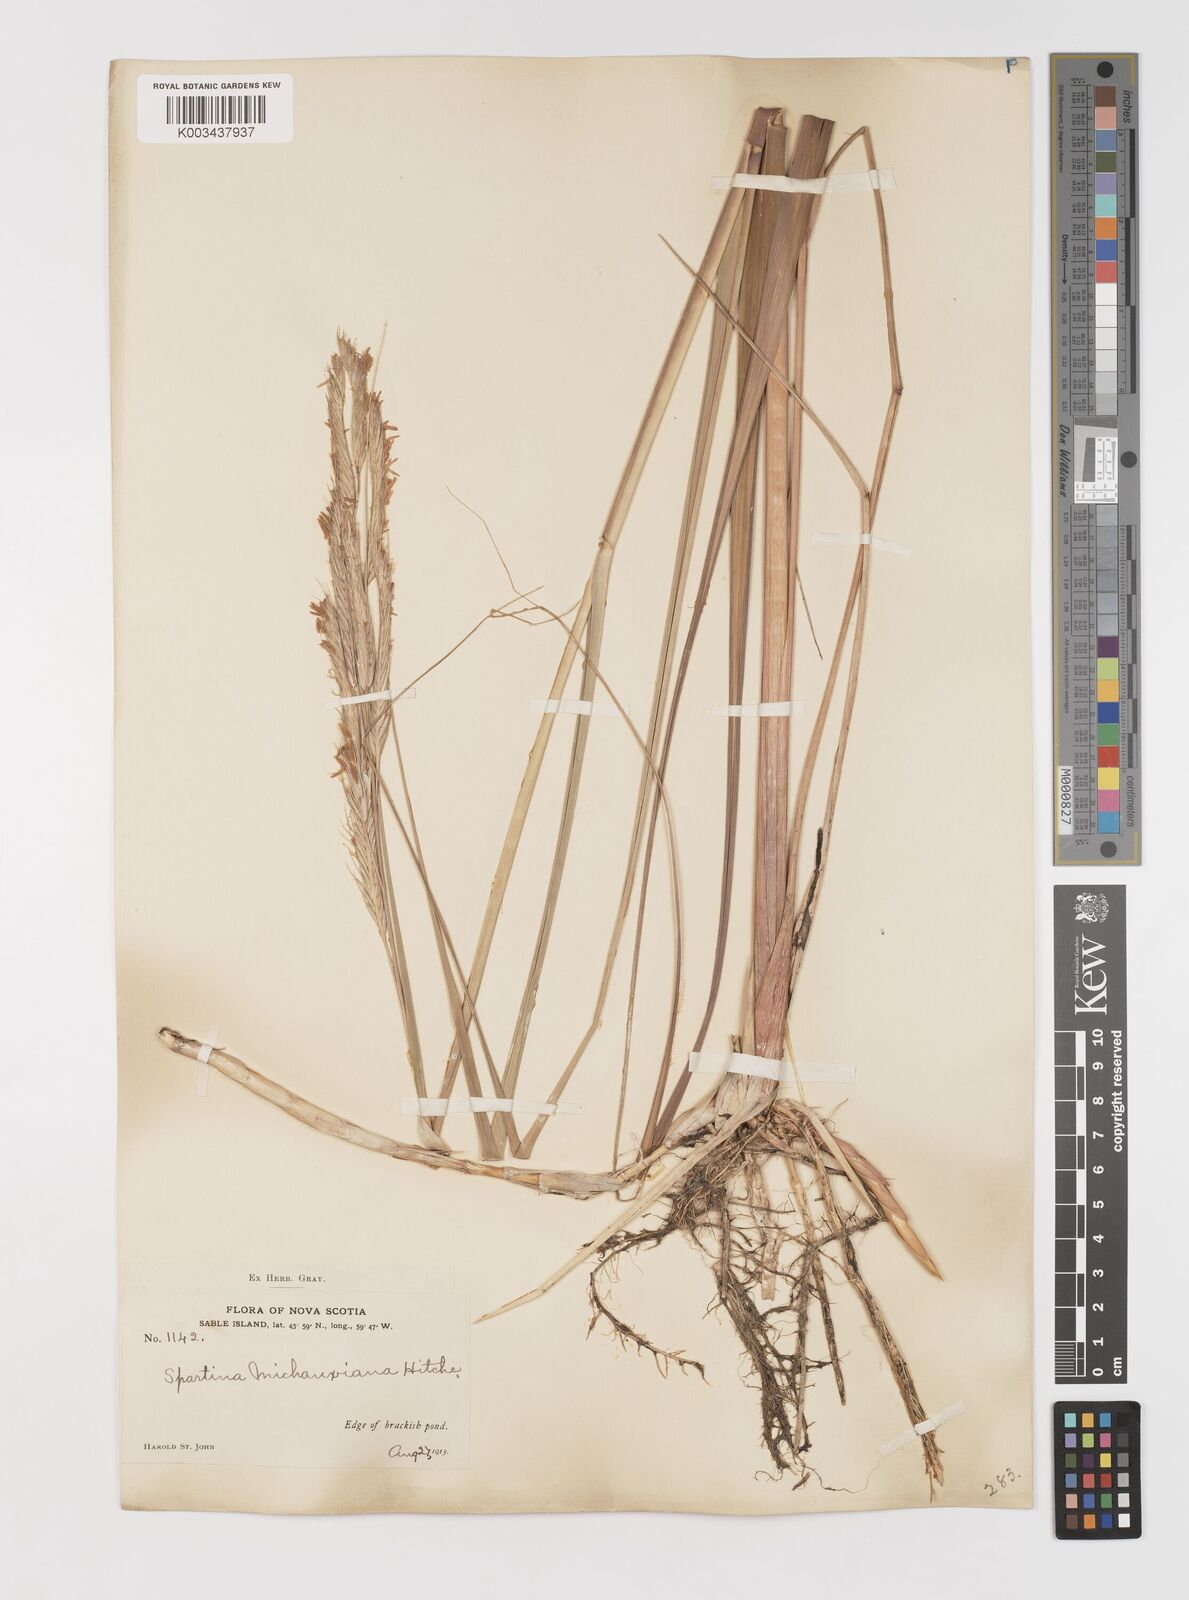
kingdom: Plantae
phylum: Tracheophyta
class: Liliopsida
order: Poales
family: Poaceae
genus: Sporobolus
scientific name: Sporobolus michauxianus
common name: Freshwater cordgrass
